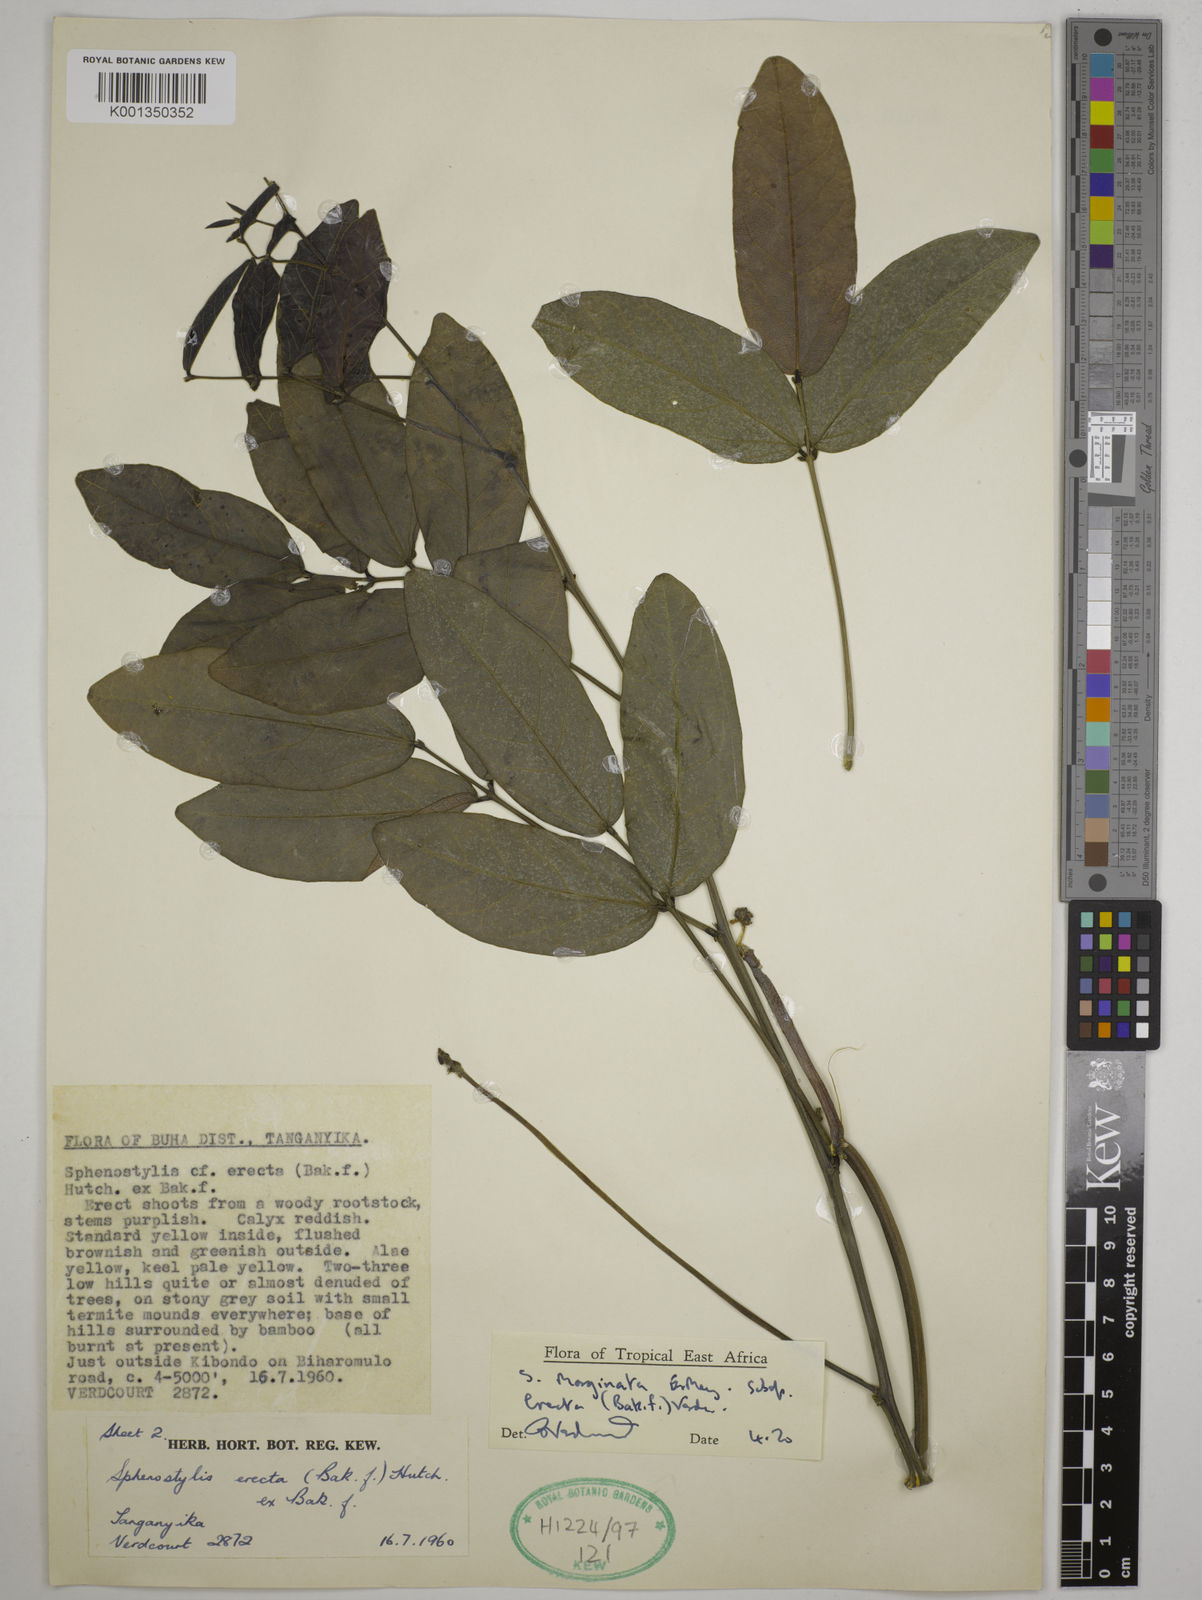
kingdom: Plantae
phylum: Tracheophyta
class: Magnoliopsida
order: Fabales
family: Fabaceae
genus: Sphenostylis
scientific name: Sphenostylis erecta
